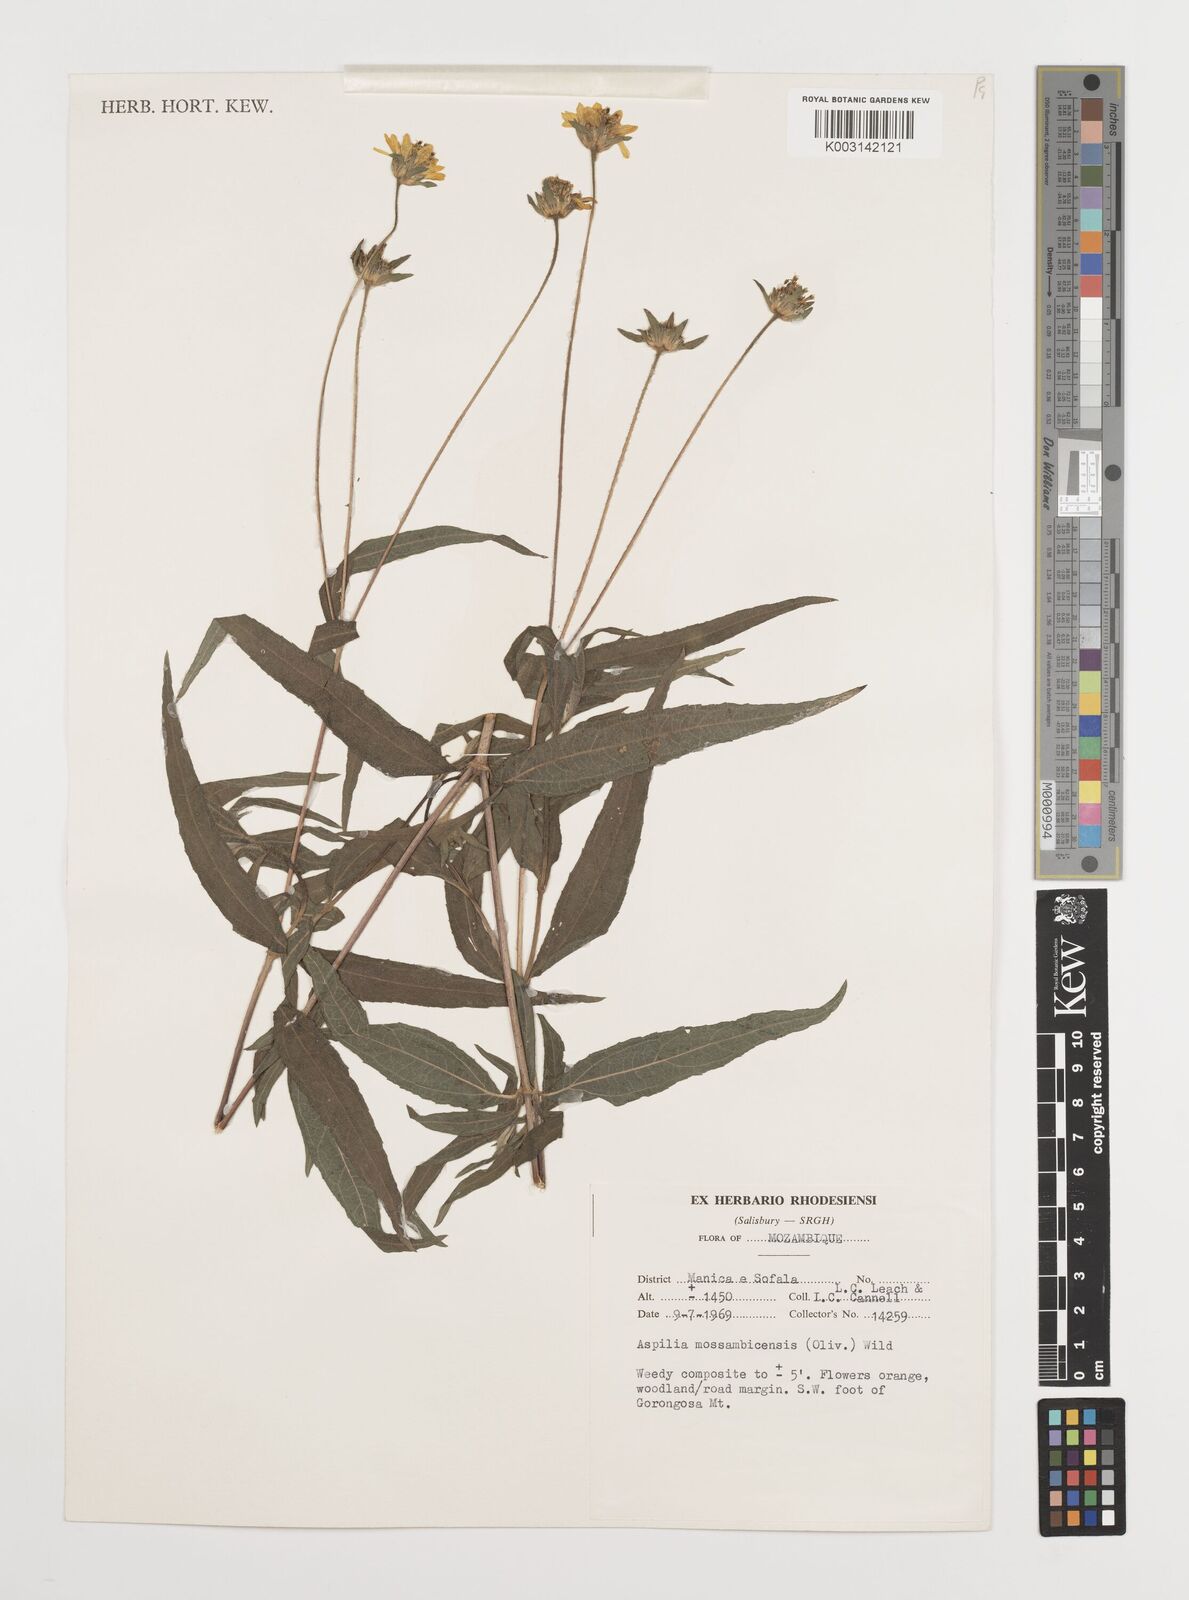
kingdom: Plantae
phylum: Tracheophyta
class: Magnoliopsida
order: Asterales
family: Asteraceae
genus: Aspilia
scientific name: Aspilia mossambicensis
